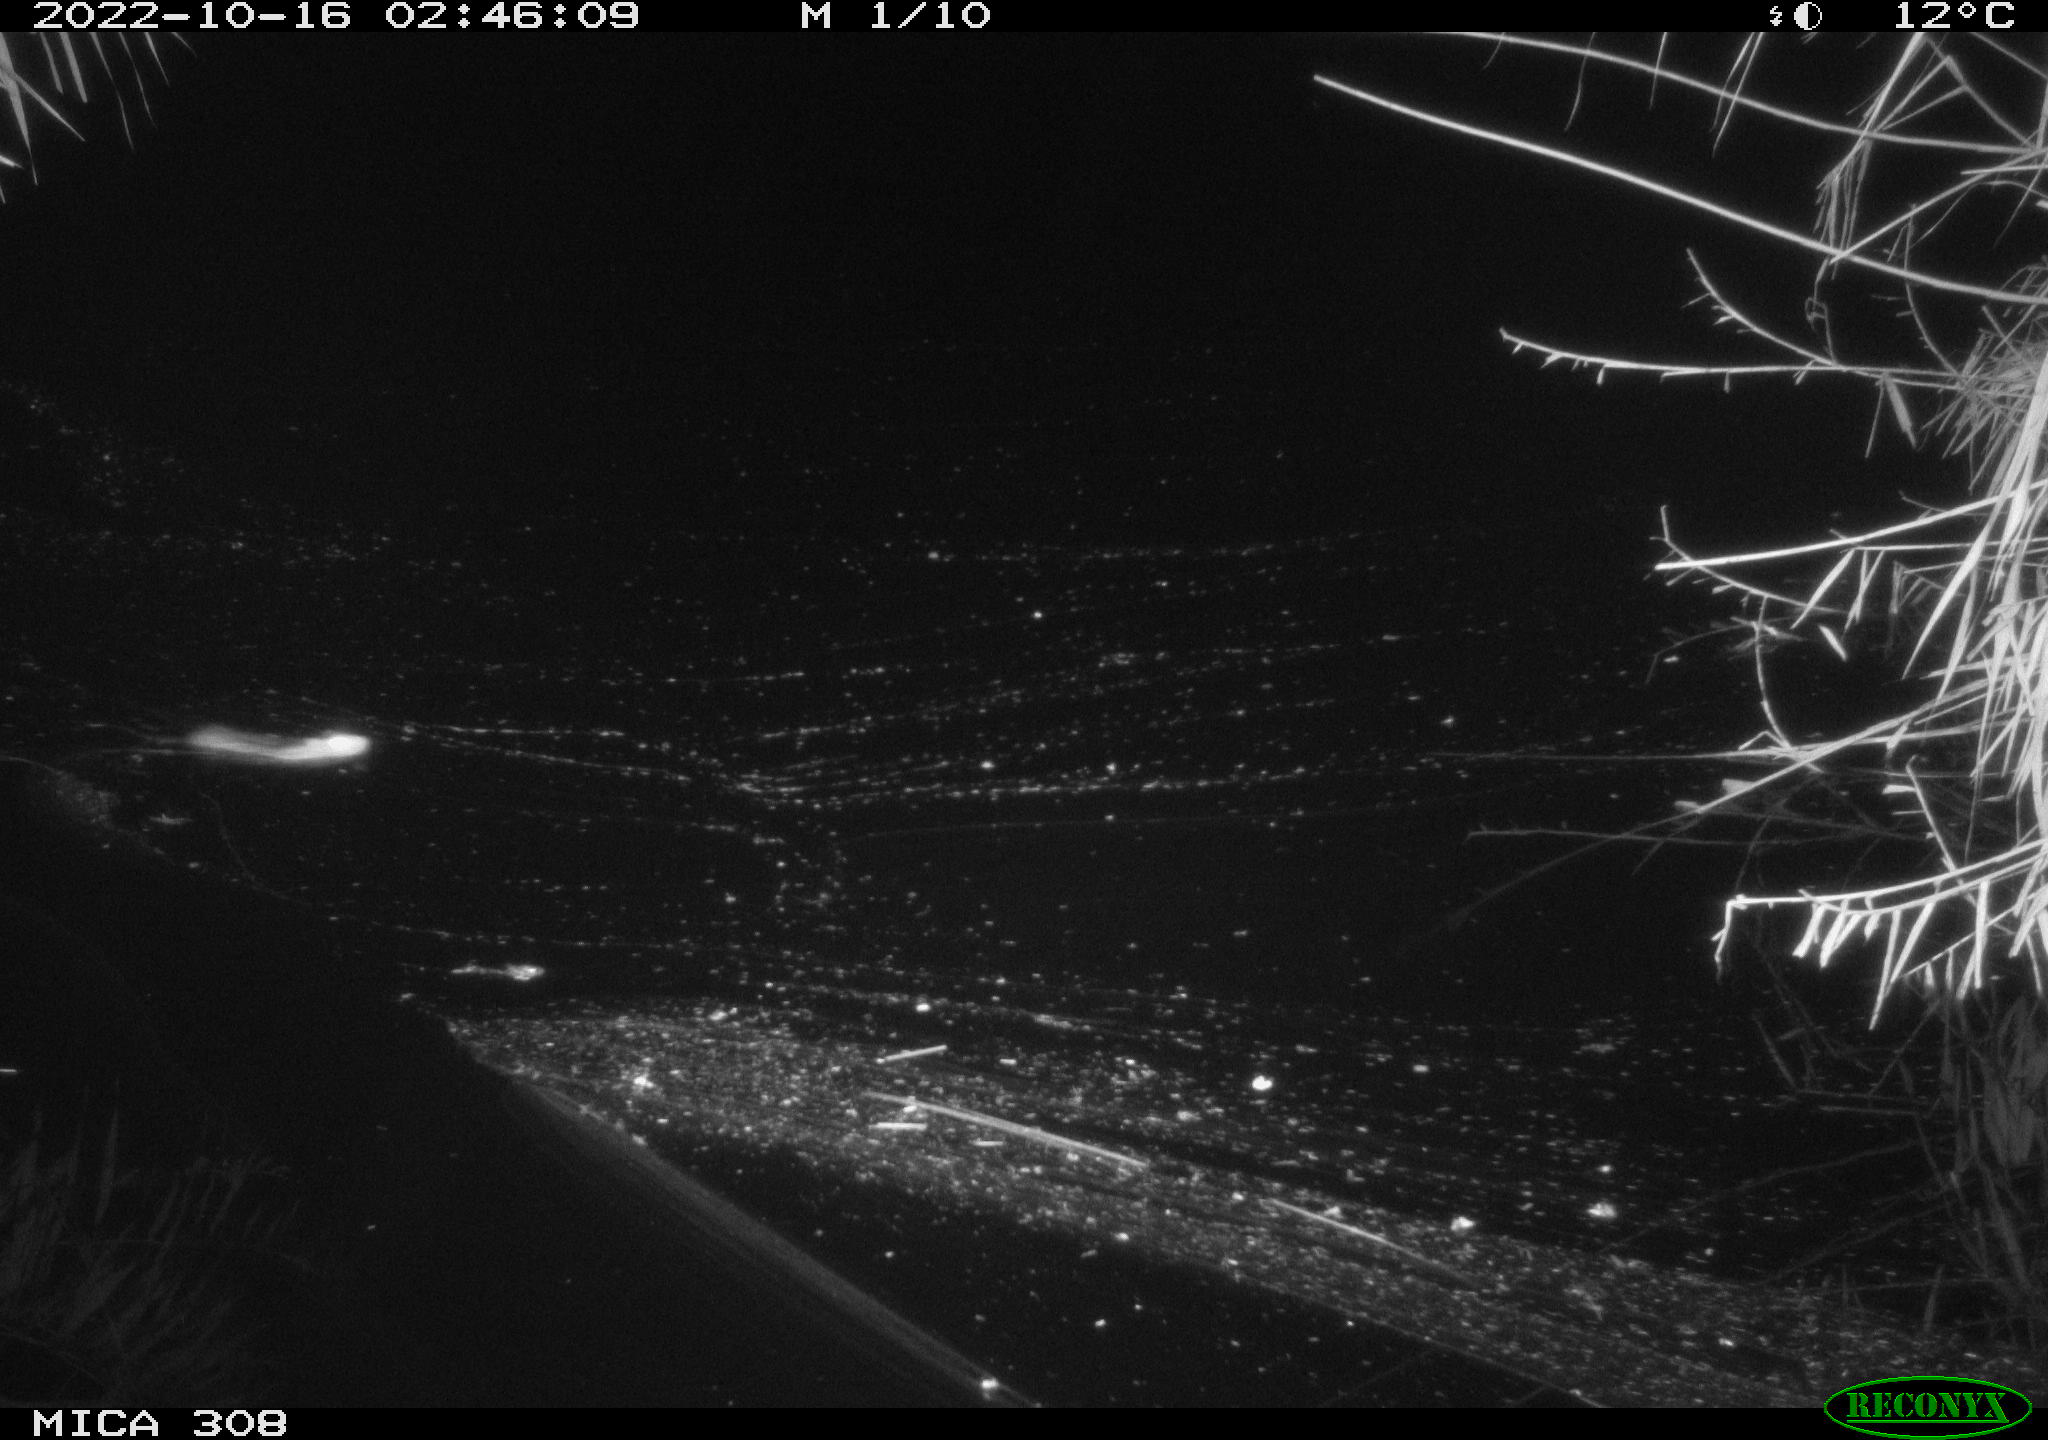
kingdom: Animalia
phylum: Chordata
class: Mammalia
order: Rodentia
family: Muridae
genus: Rattus
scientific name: Rattus norvegicus
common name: Brown rat
